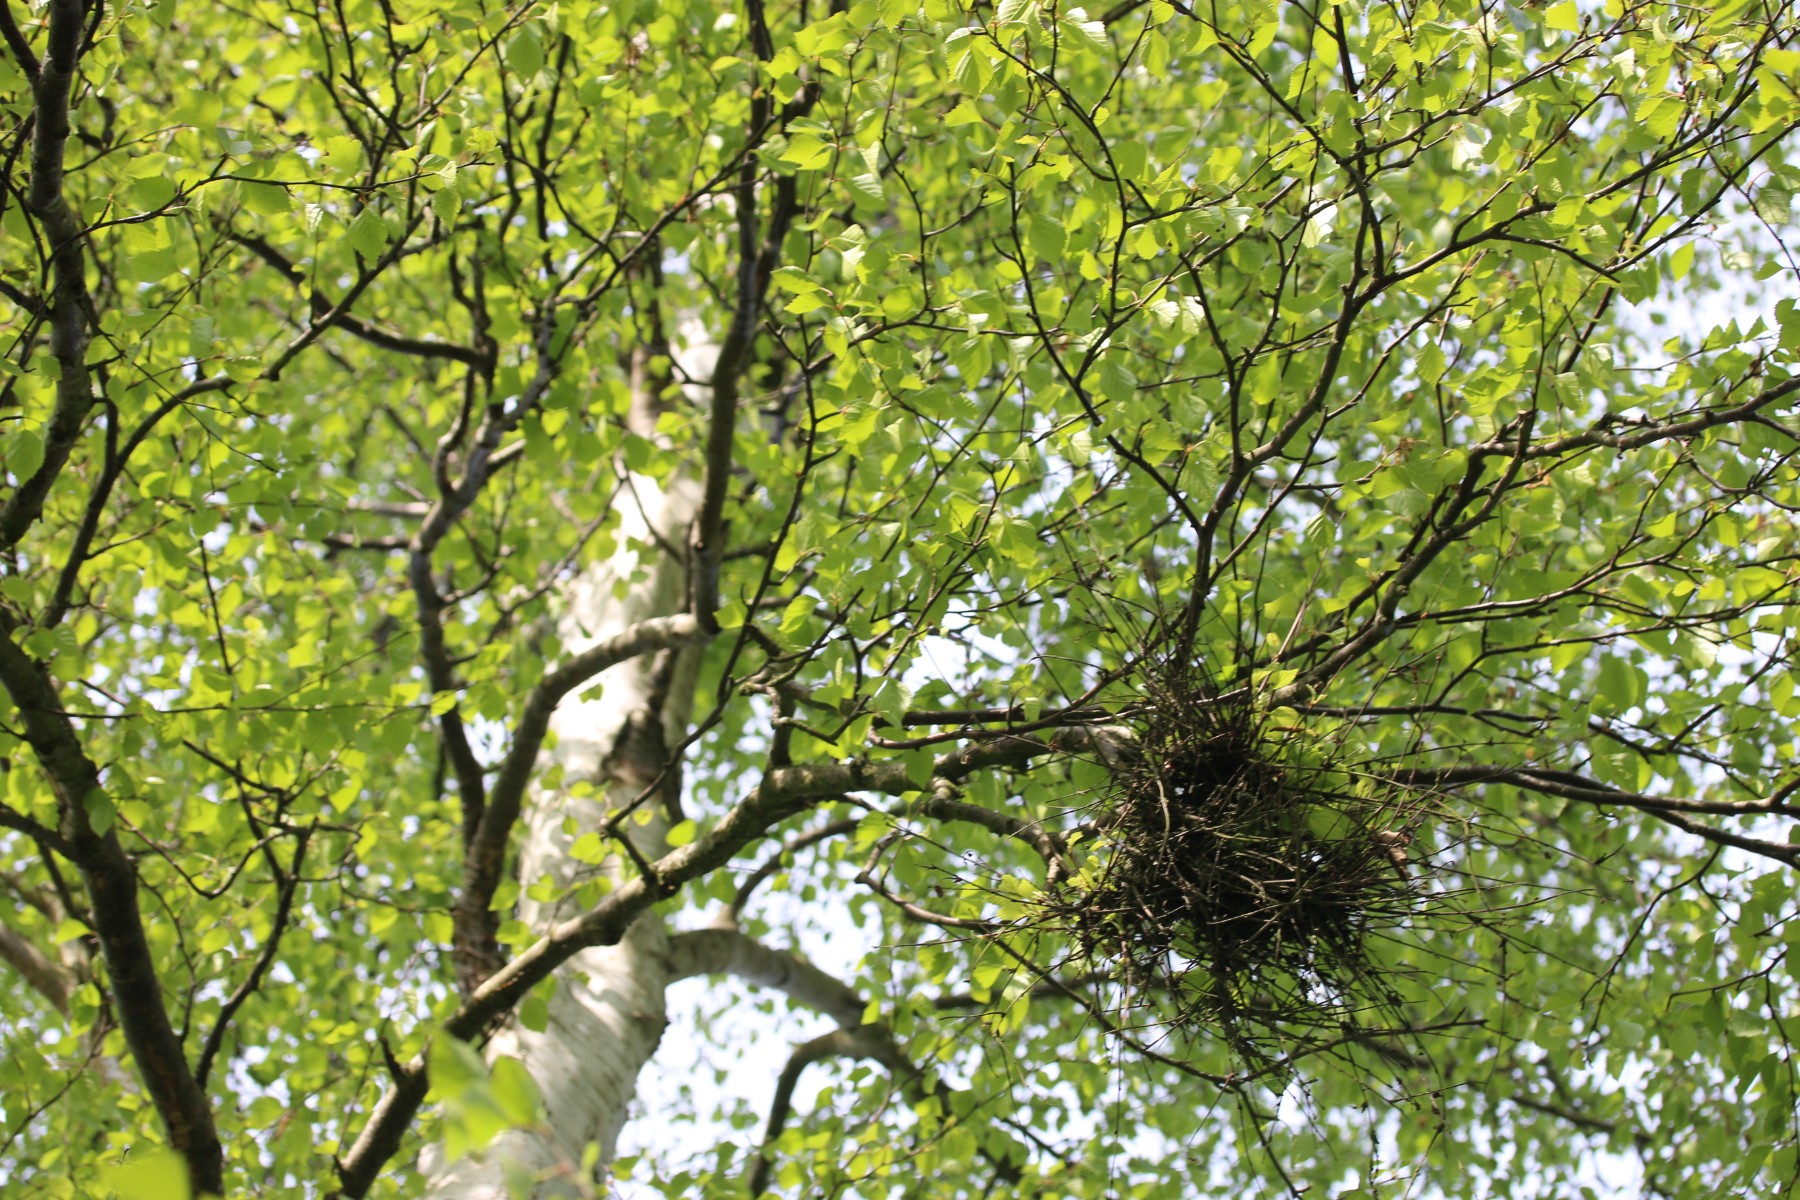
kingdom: Fungi
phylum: Ascomycota
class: Taphrinomycetes
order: Taphrinales
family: Taphrinaceae
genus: Taphrina
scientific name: Taphrina betulina
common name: hekse-sækdug
